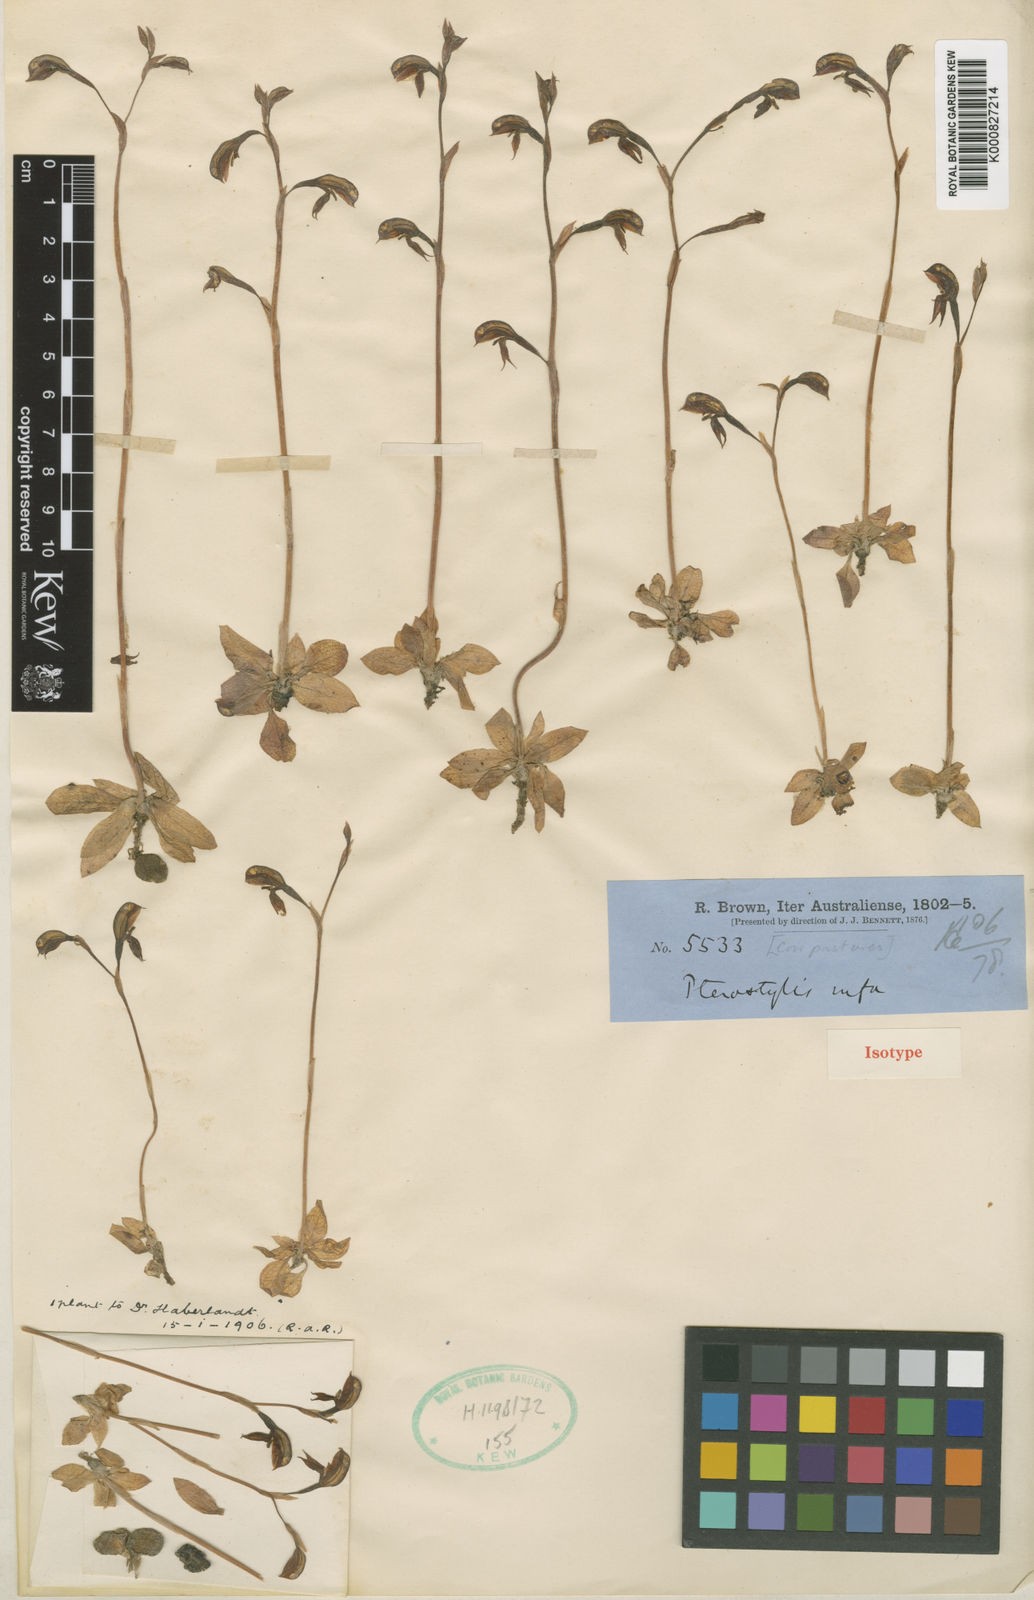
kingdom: Plantae
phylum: Tracheophyta
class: Liliopsida
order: Asparagales
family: Orchidaceae
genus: Pterostylis
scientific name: Pterostylis rufa
